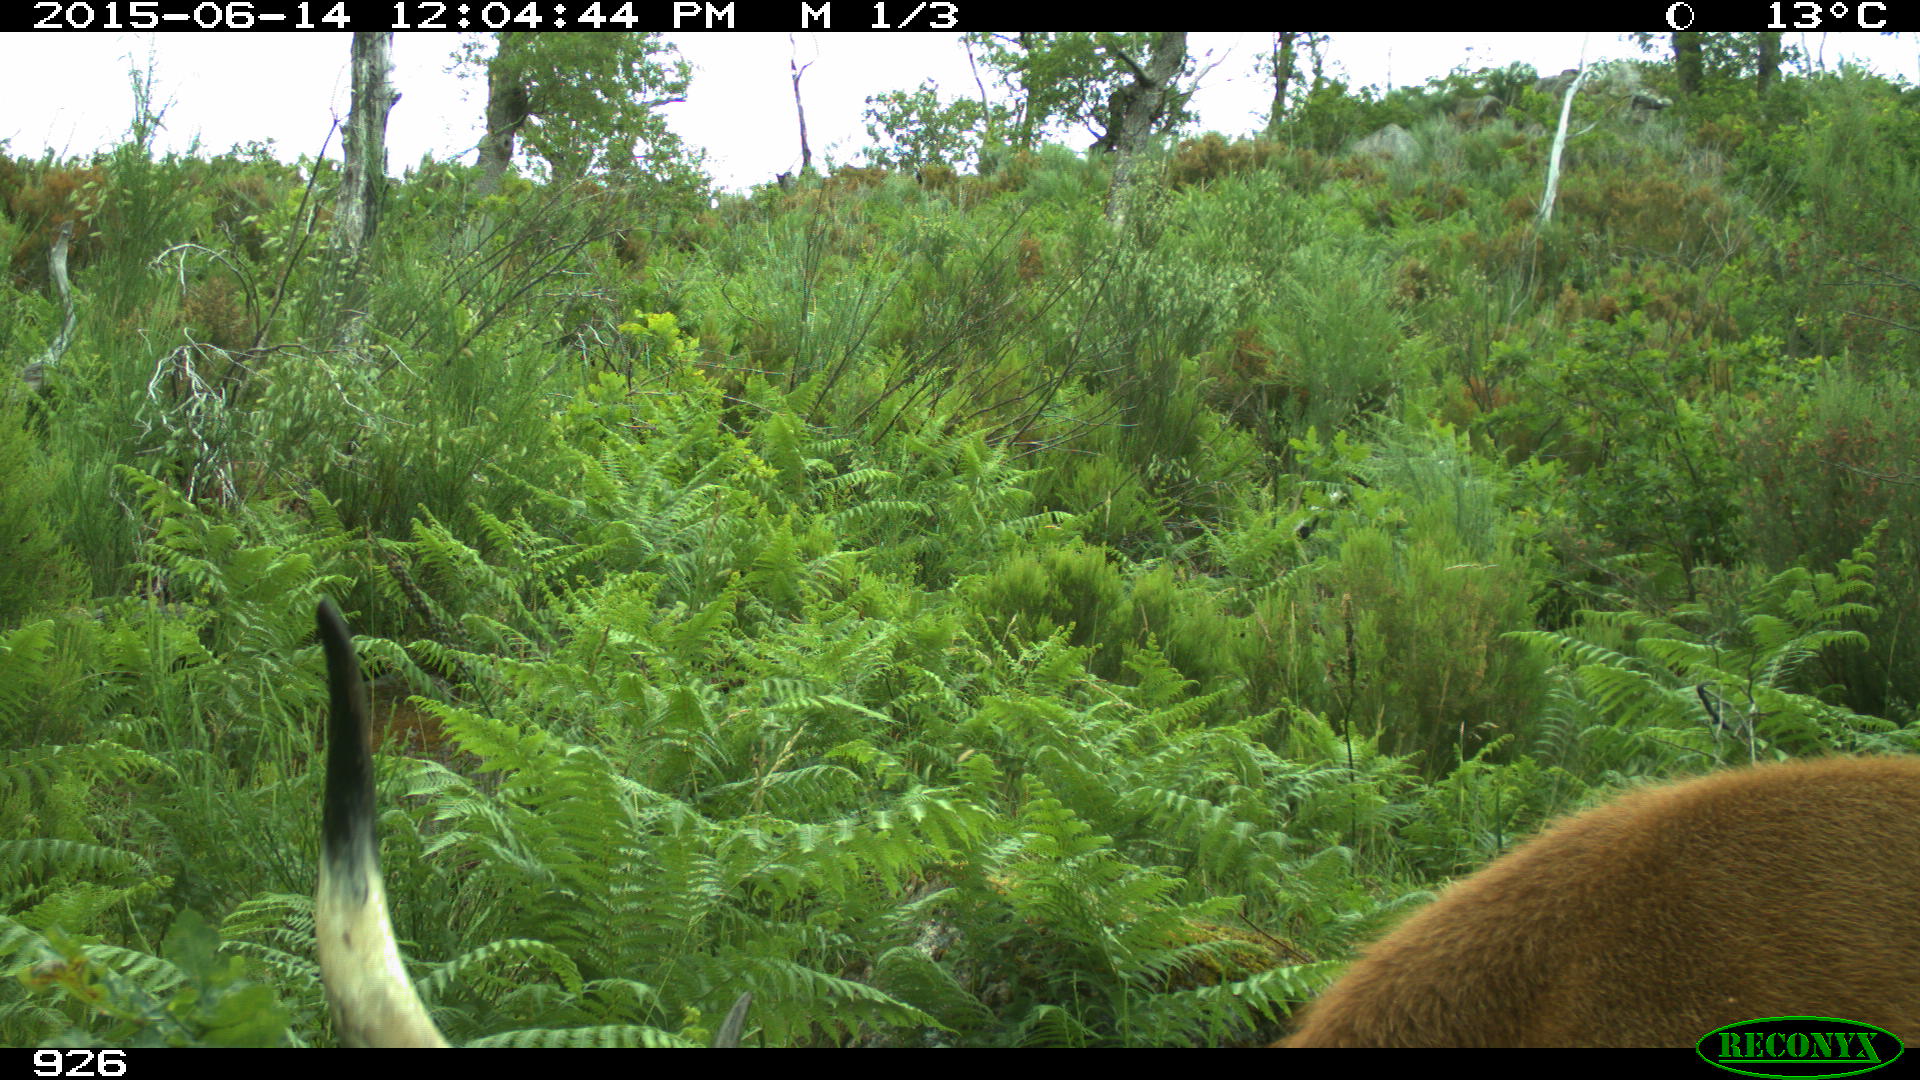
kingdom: Animalia
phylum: Chordata
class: Mammalia
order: Artiodactyla
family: Bovidae
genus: Bos
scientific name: Bos taurus
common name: Domesticated cattle
